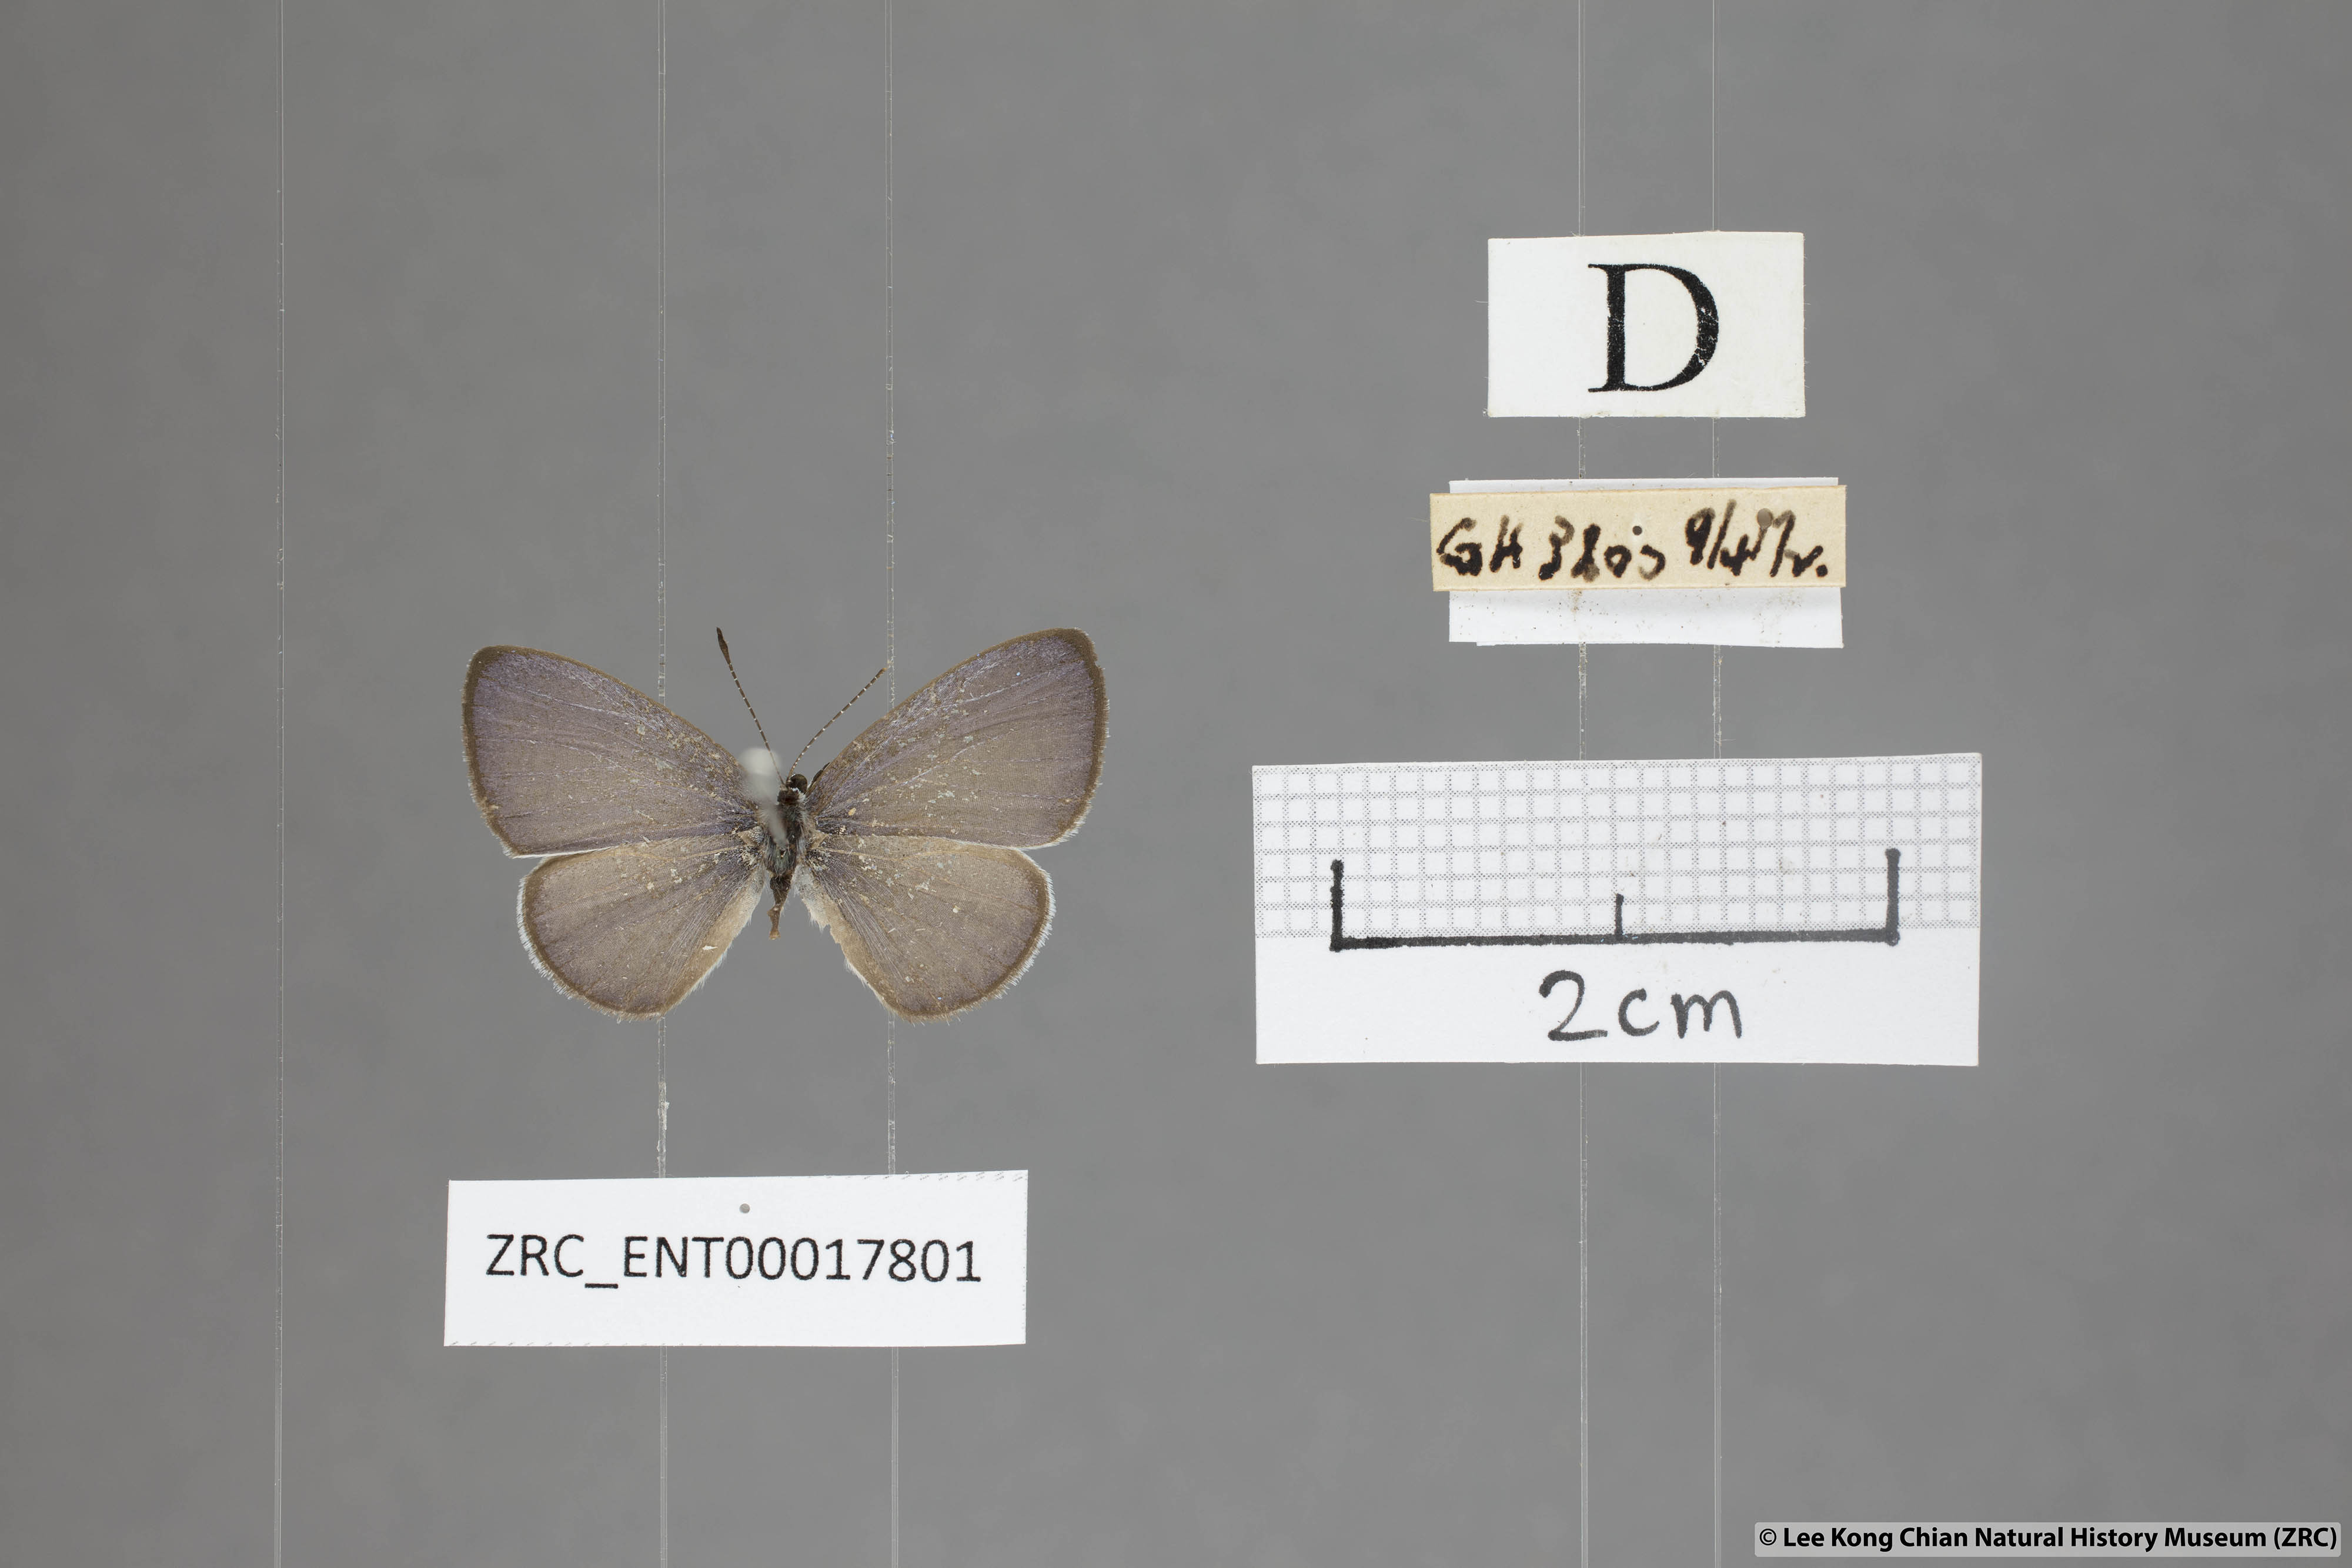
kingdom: Animalia
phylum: Arthropoda
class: Insecta
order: Lepidoptera
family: Lycaenidae
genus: Monodontides
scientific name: Monodontides
